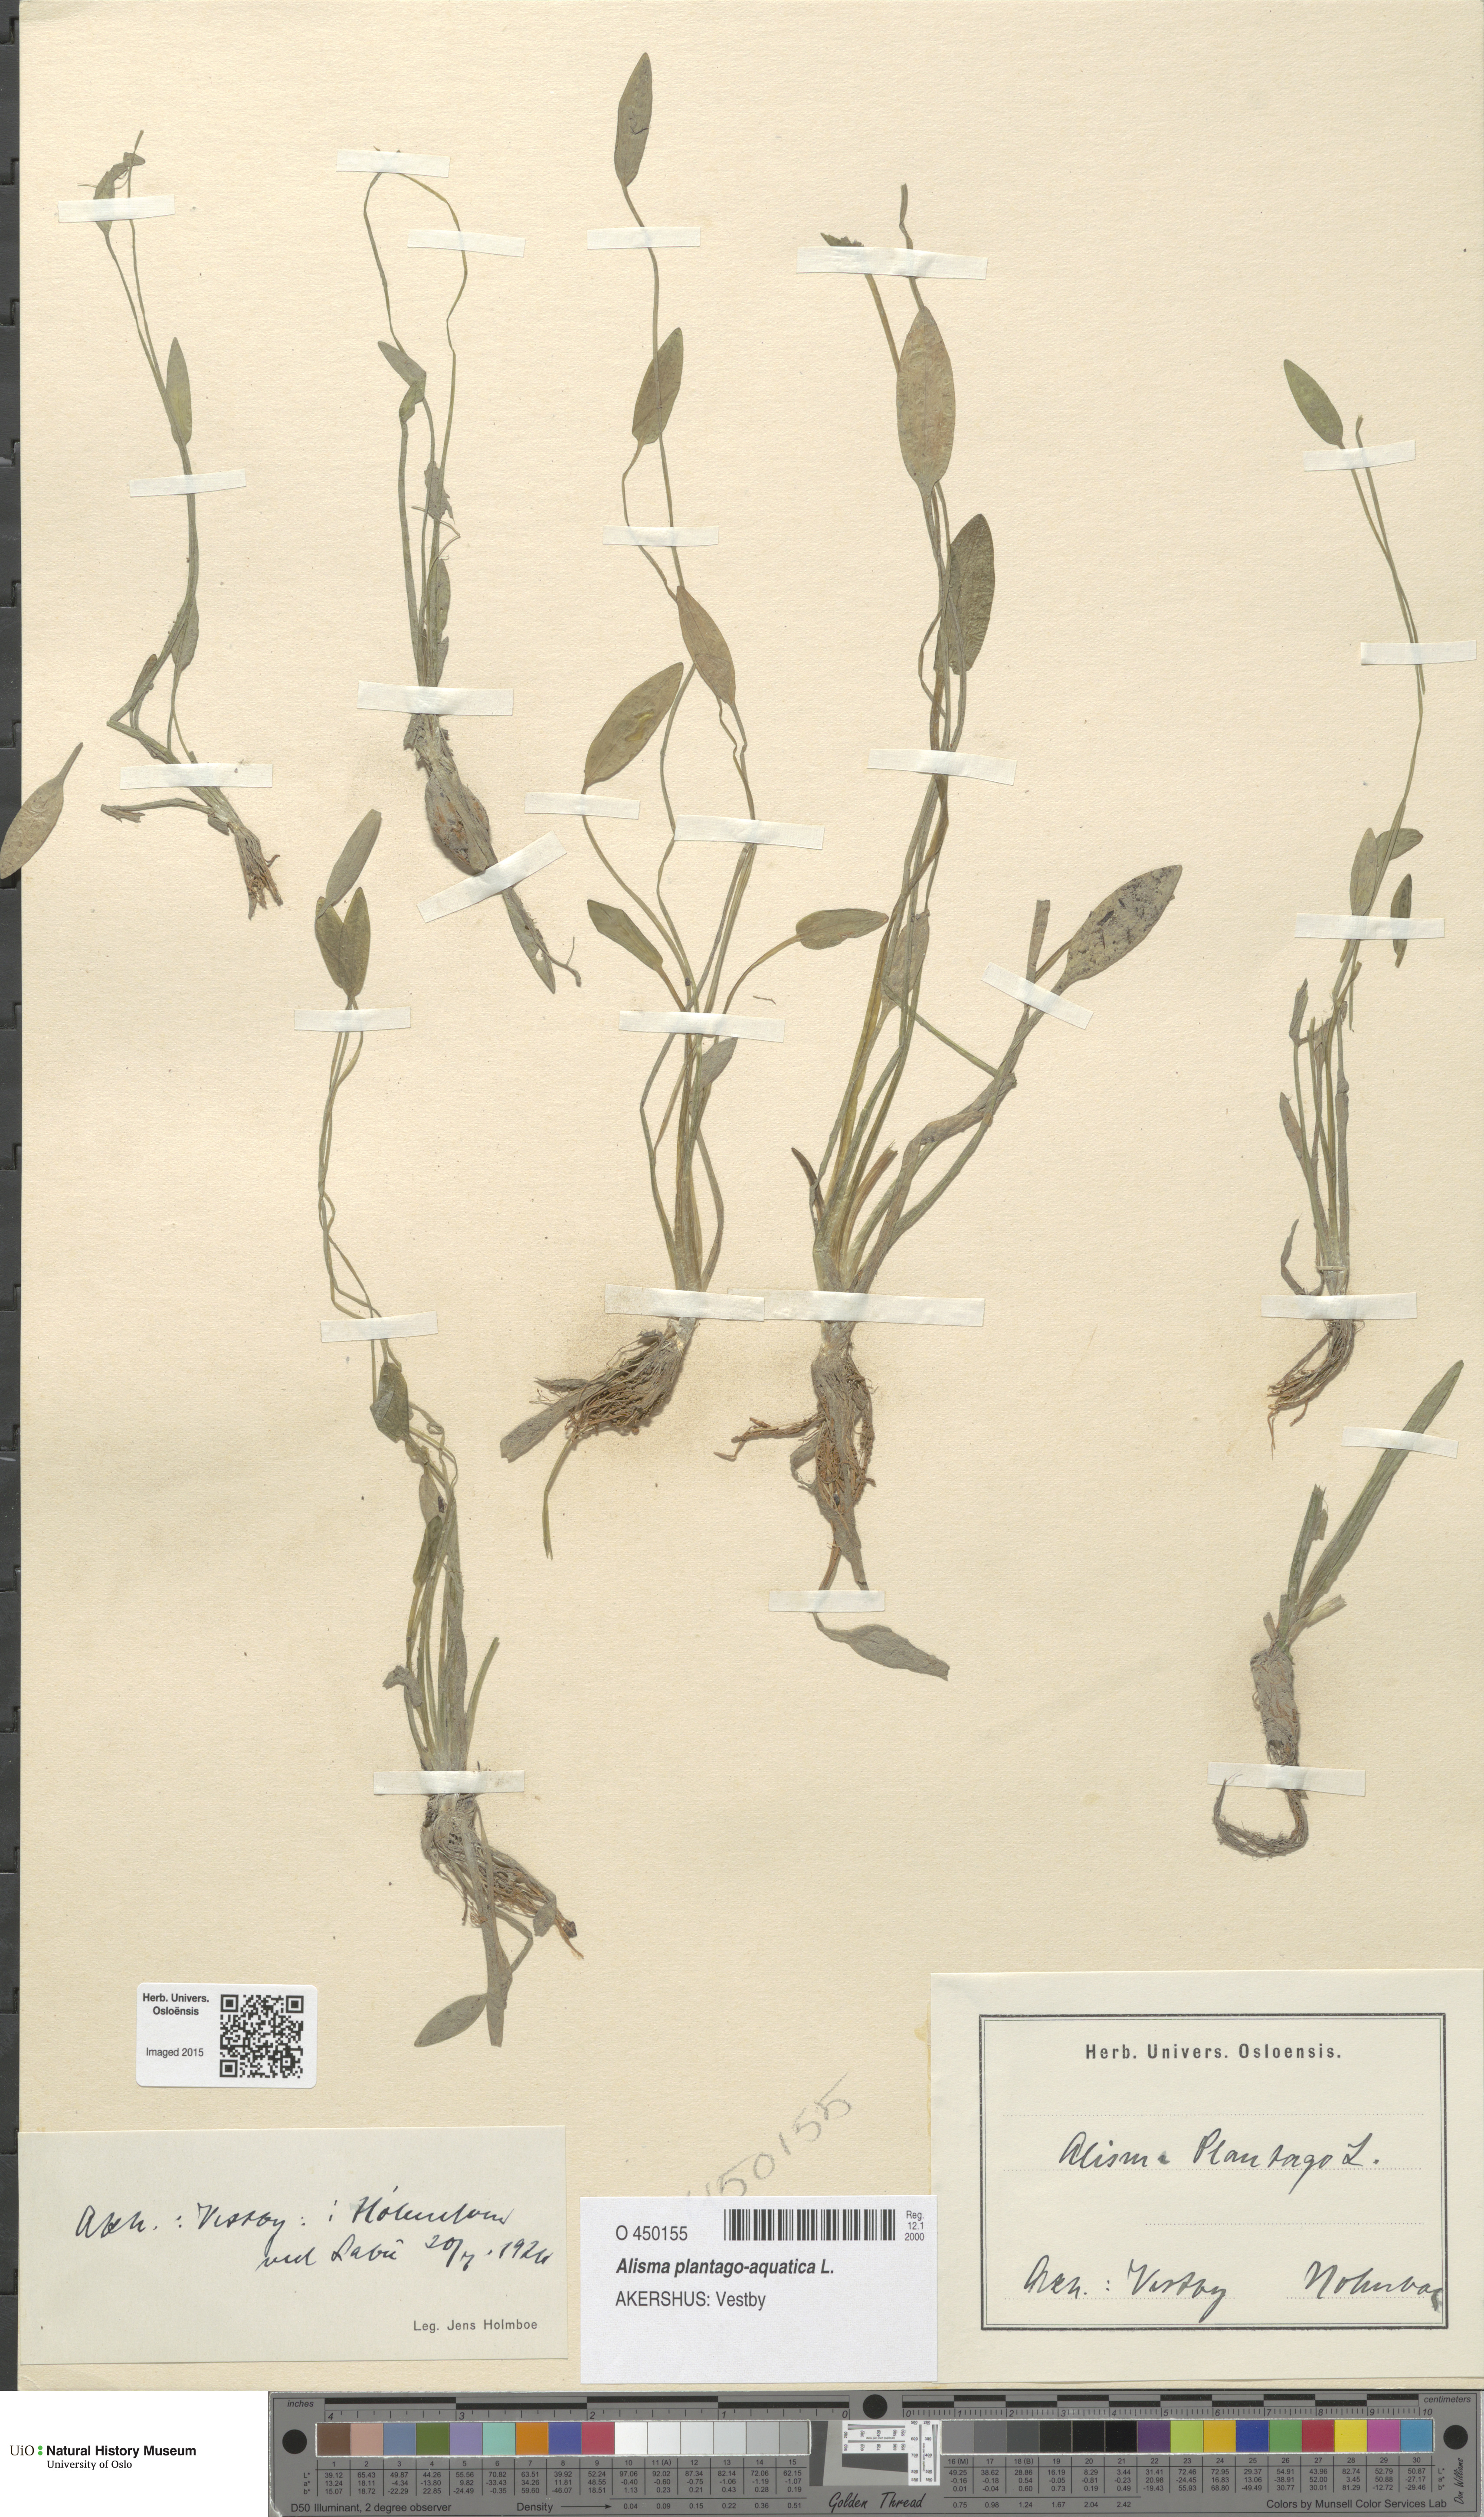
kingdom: Plantae
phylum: Tracheophyta
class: Liliopsida
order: Alismatales
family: Alismataceae
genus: Alisma
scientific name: Alisma plantago-aquatica
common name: Water-plantain
